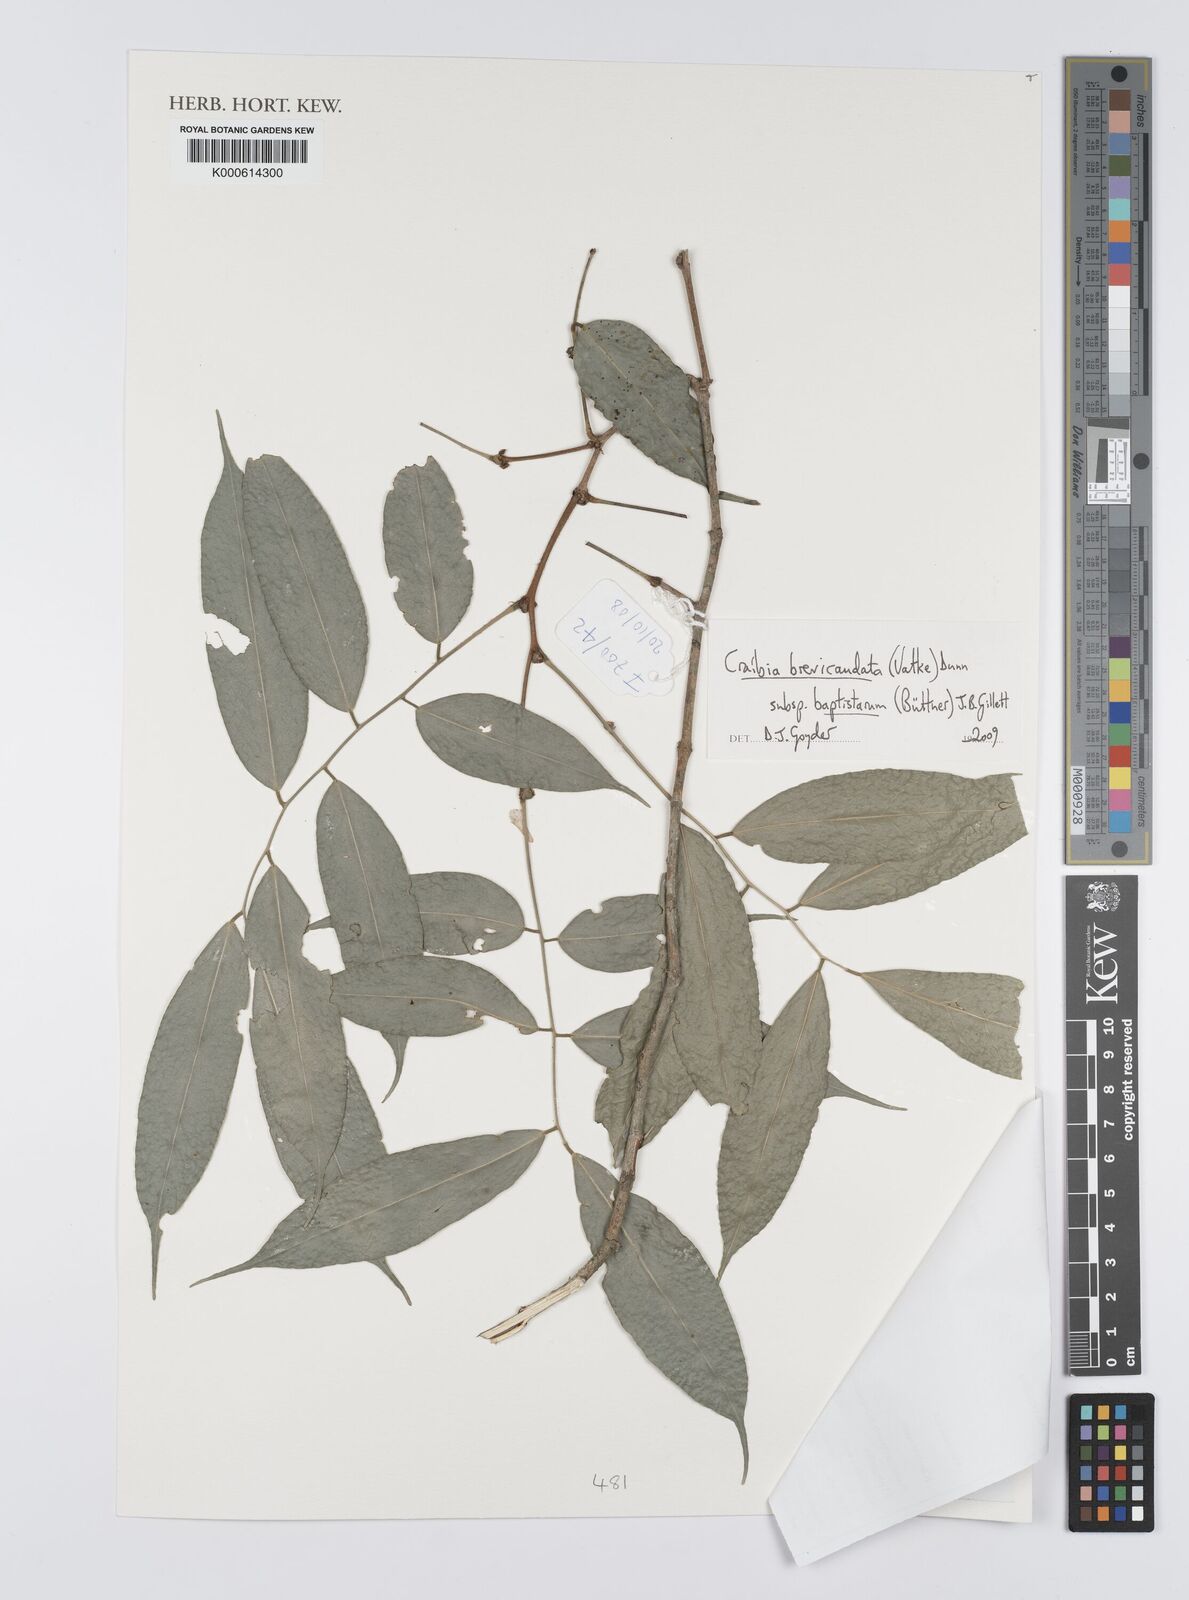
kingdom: Plantae
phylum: Tracheophyta
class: Magnoliopsida
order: Fabales
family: Fabaceae
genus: Craibia
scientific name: Craibia brevicaudata
